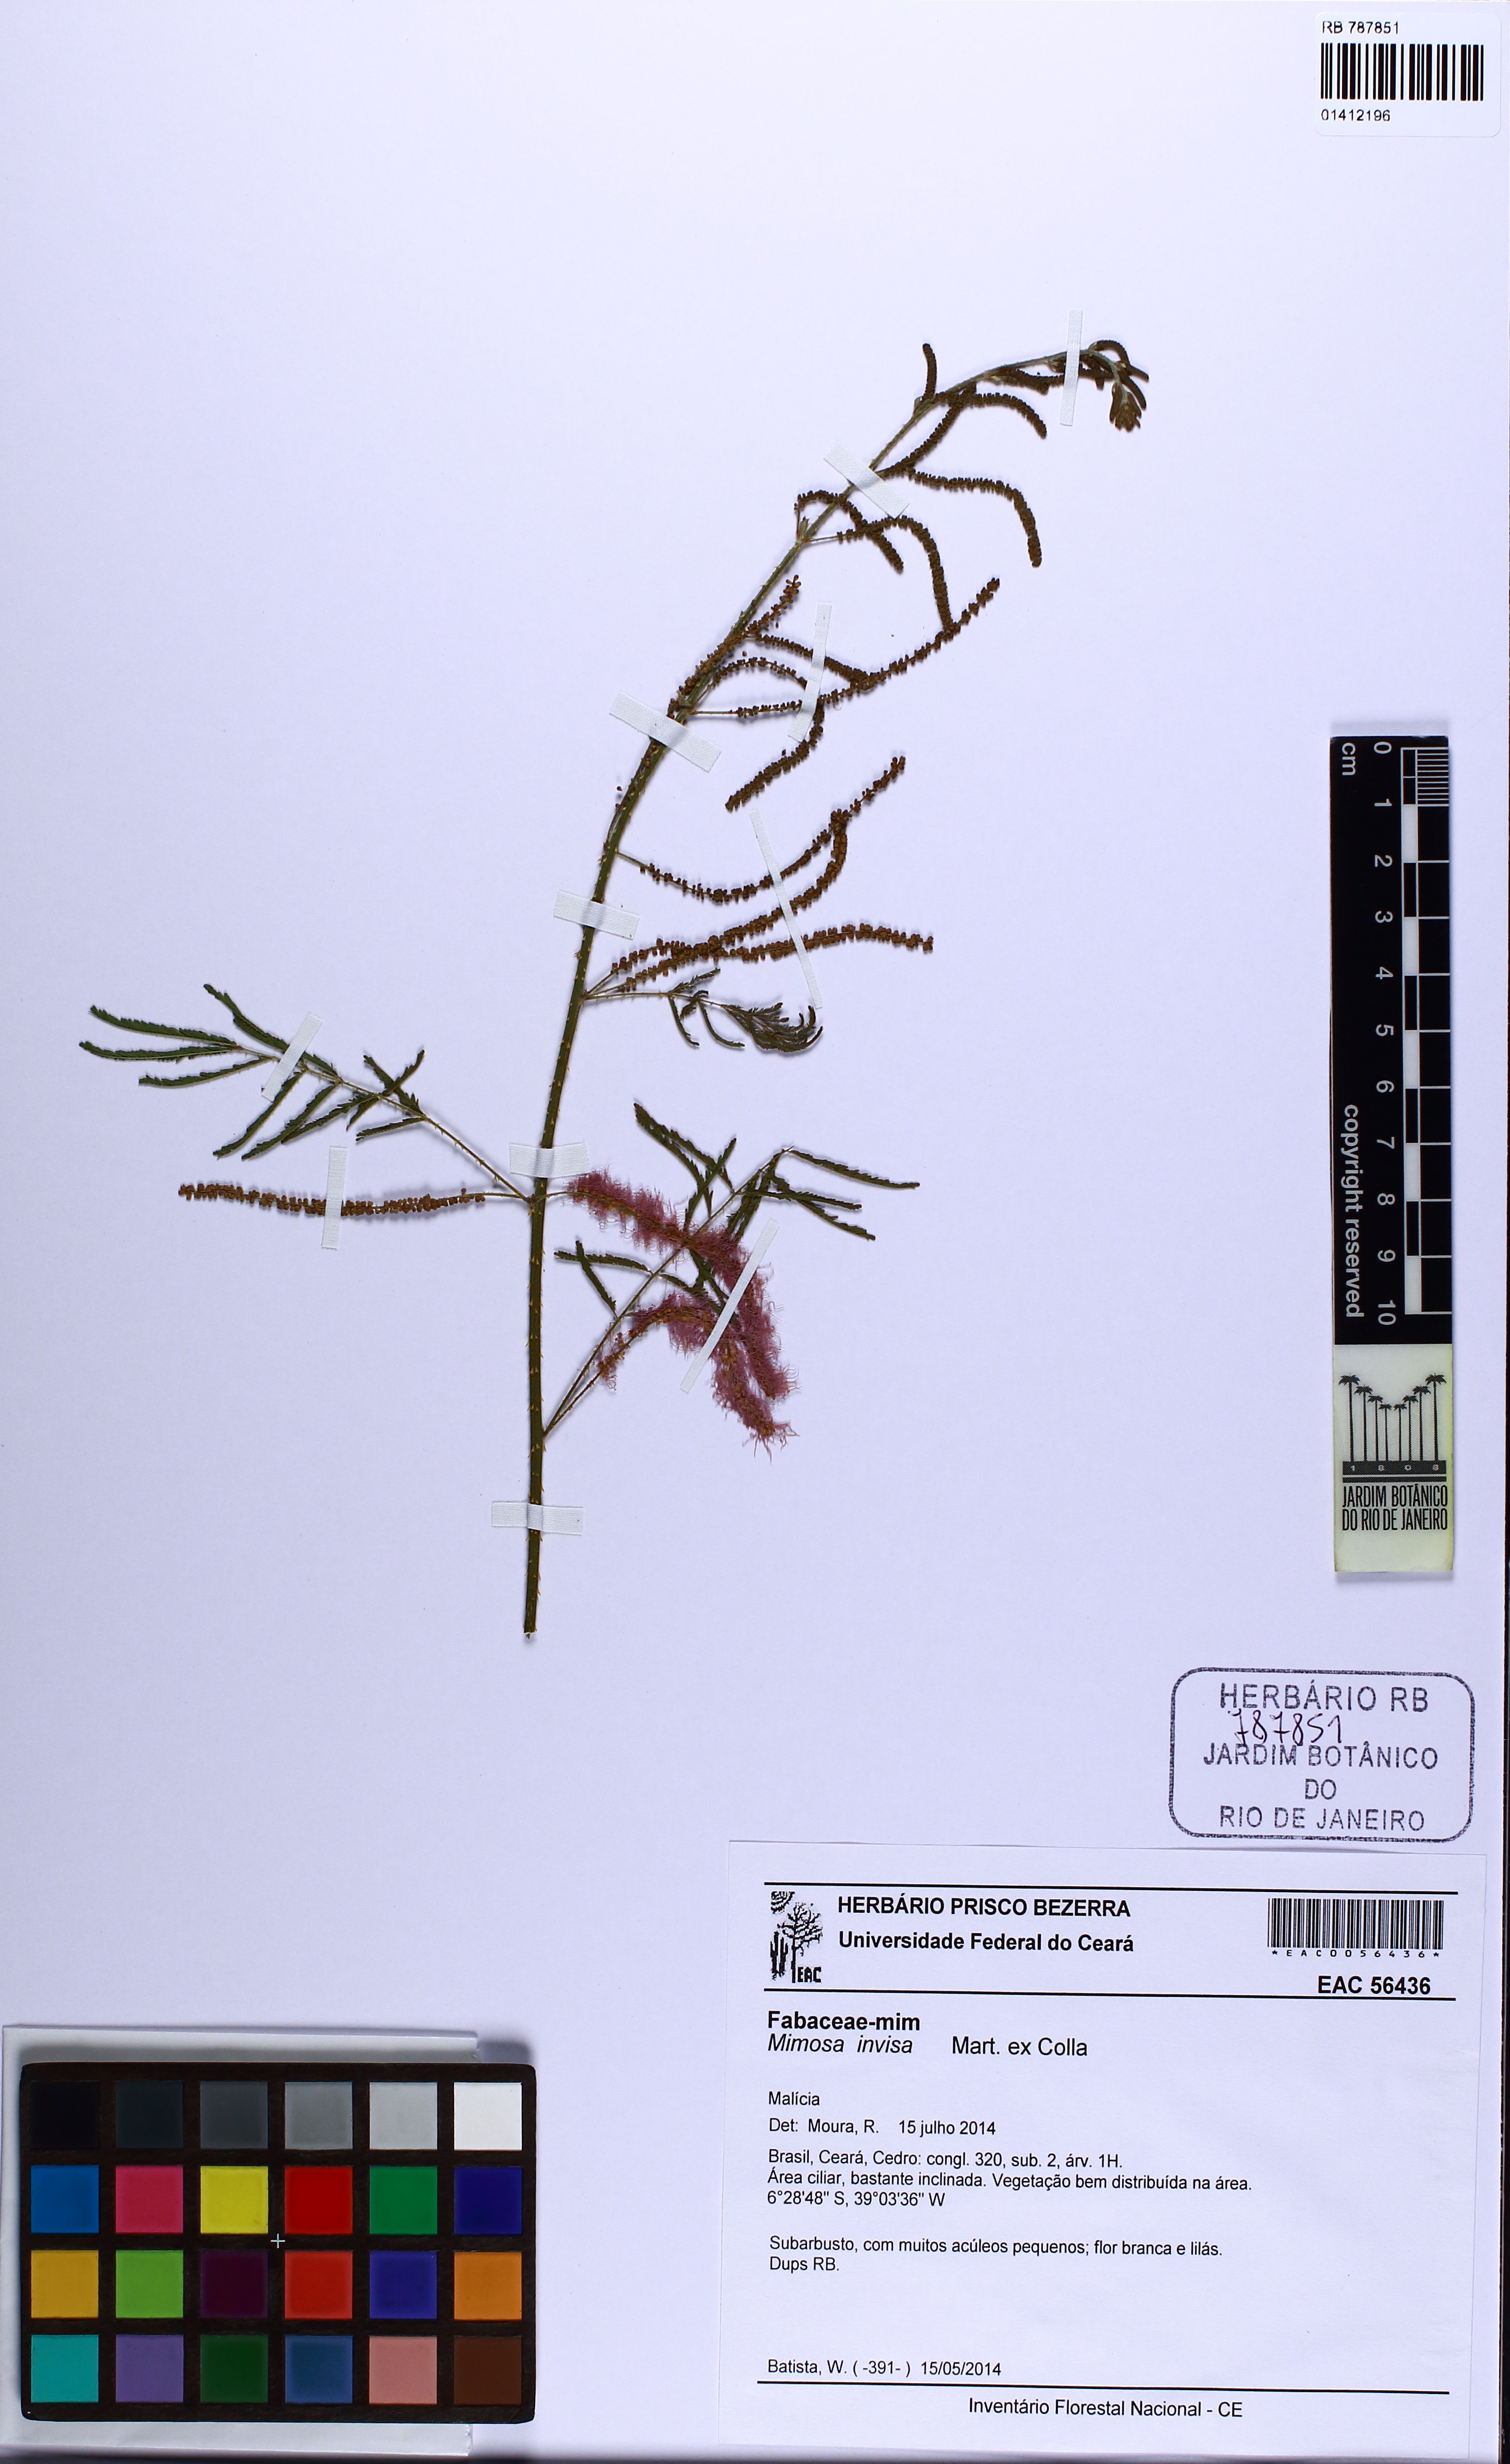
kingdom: Plantae
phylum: Tracheophyta
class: Magnoliopsida
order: Fabales
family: Fabaceae
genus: Mimosa
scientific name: Mimosa invisa
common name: Creeping sensitive-plant
